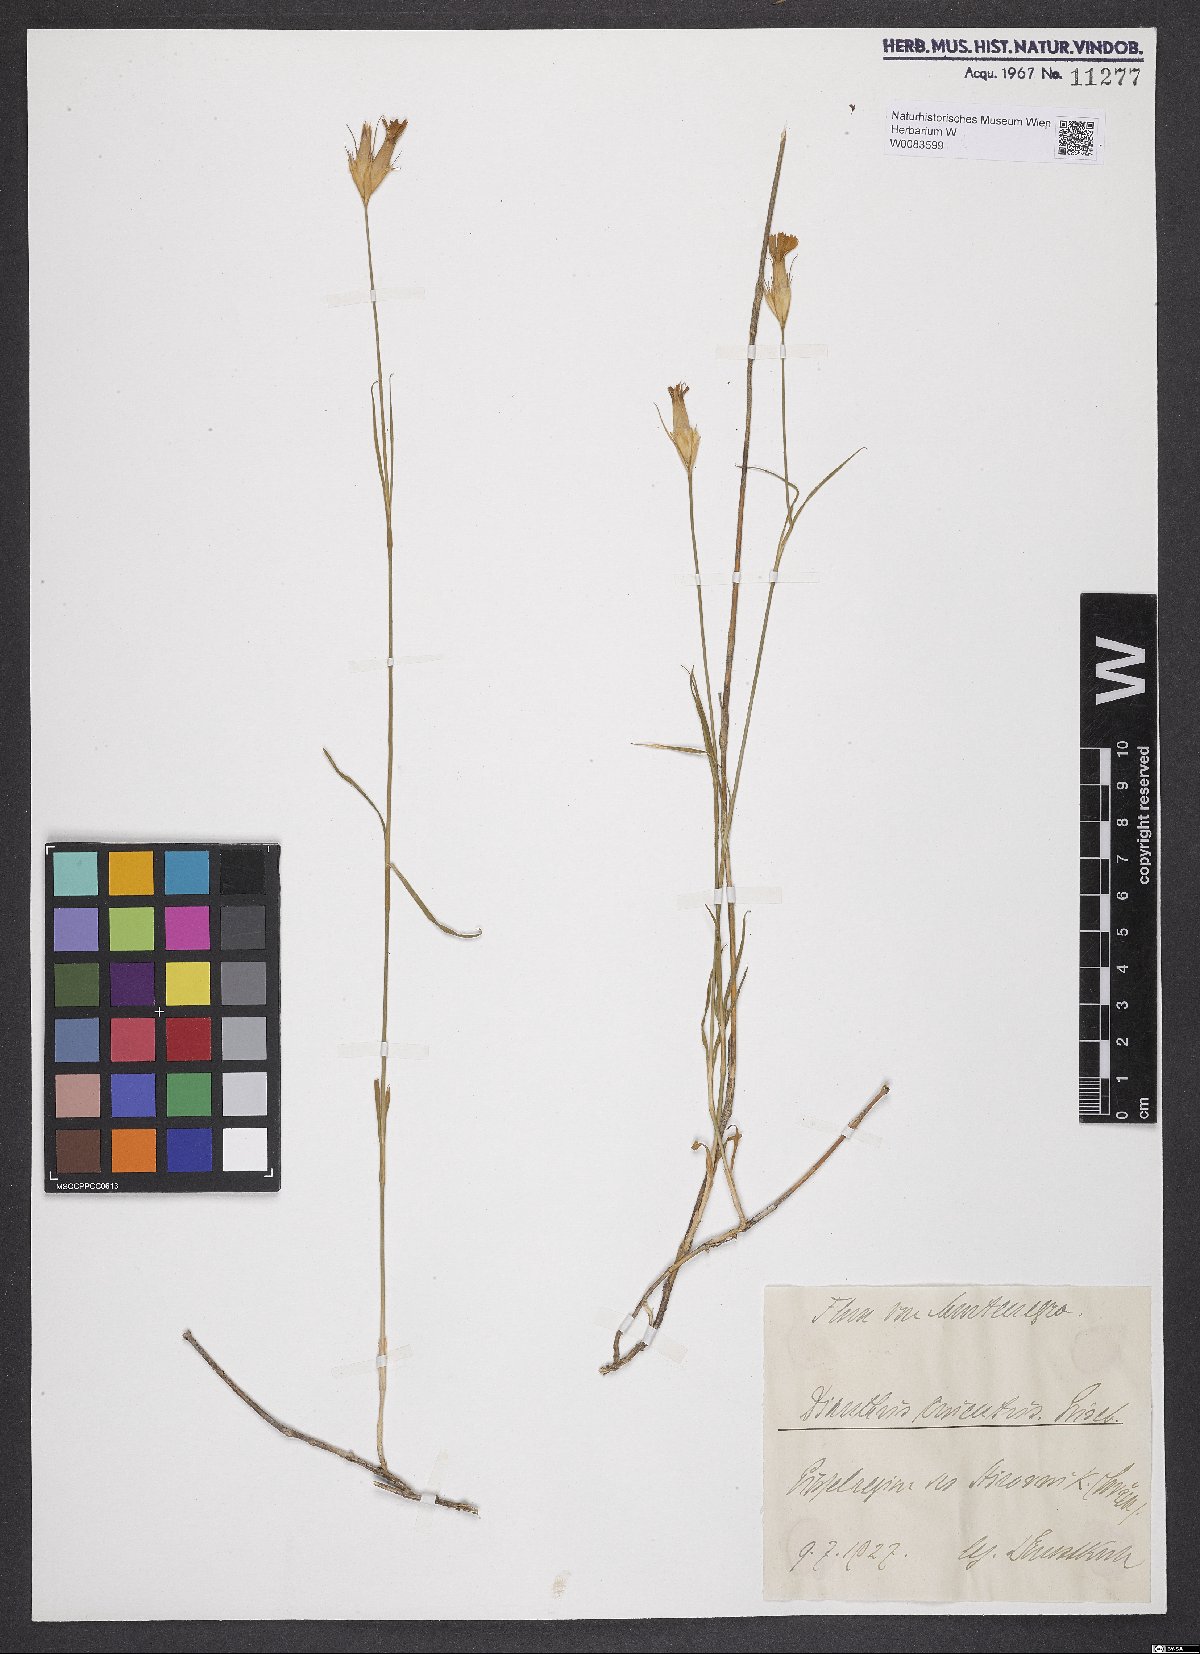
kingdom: Plantae
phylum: Tracheophyta
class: Magnoliopsida
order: Caryophyllales
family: Caryophyllaceae
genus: Dianthus
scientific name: Dianthus cruentus
